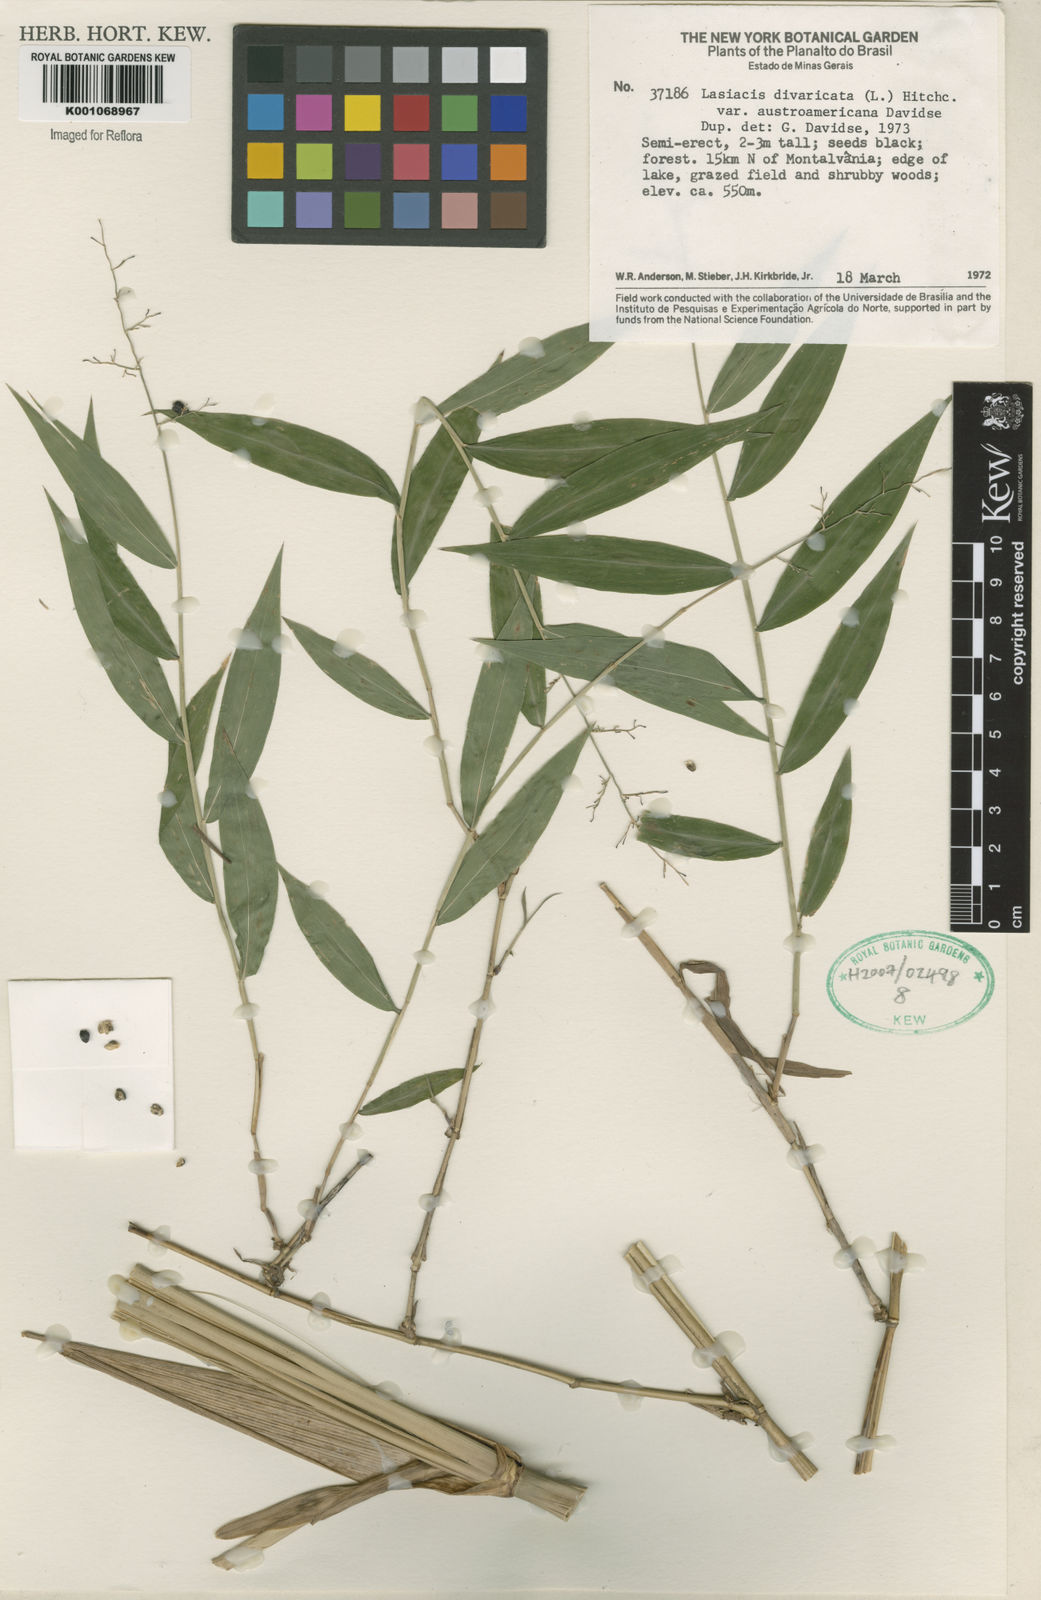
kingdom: Plantae
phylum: Tracheophyta
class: Liliopsida
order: Poales
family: Poaceae
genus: Lasiacis
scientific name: Lasiacis divaricata
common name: Smallcane
